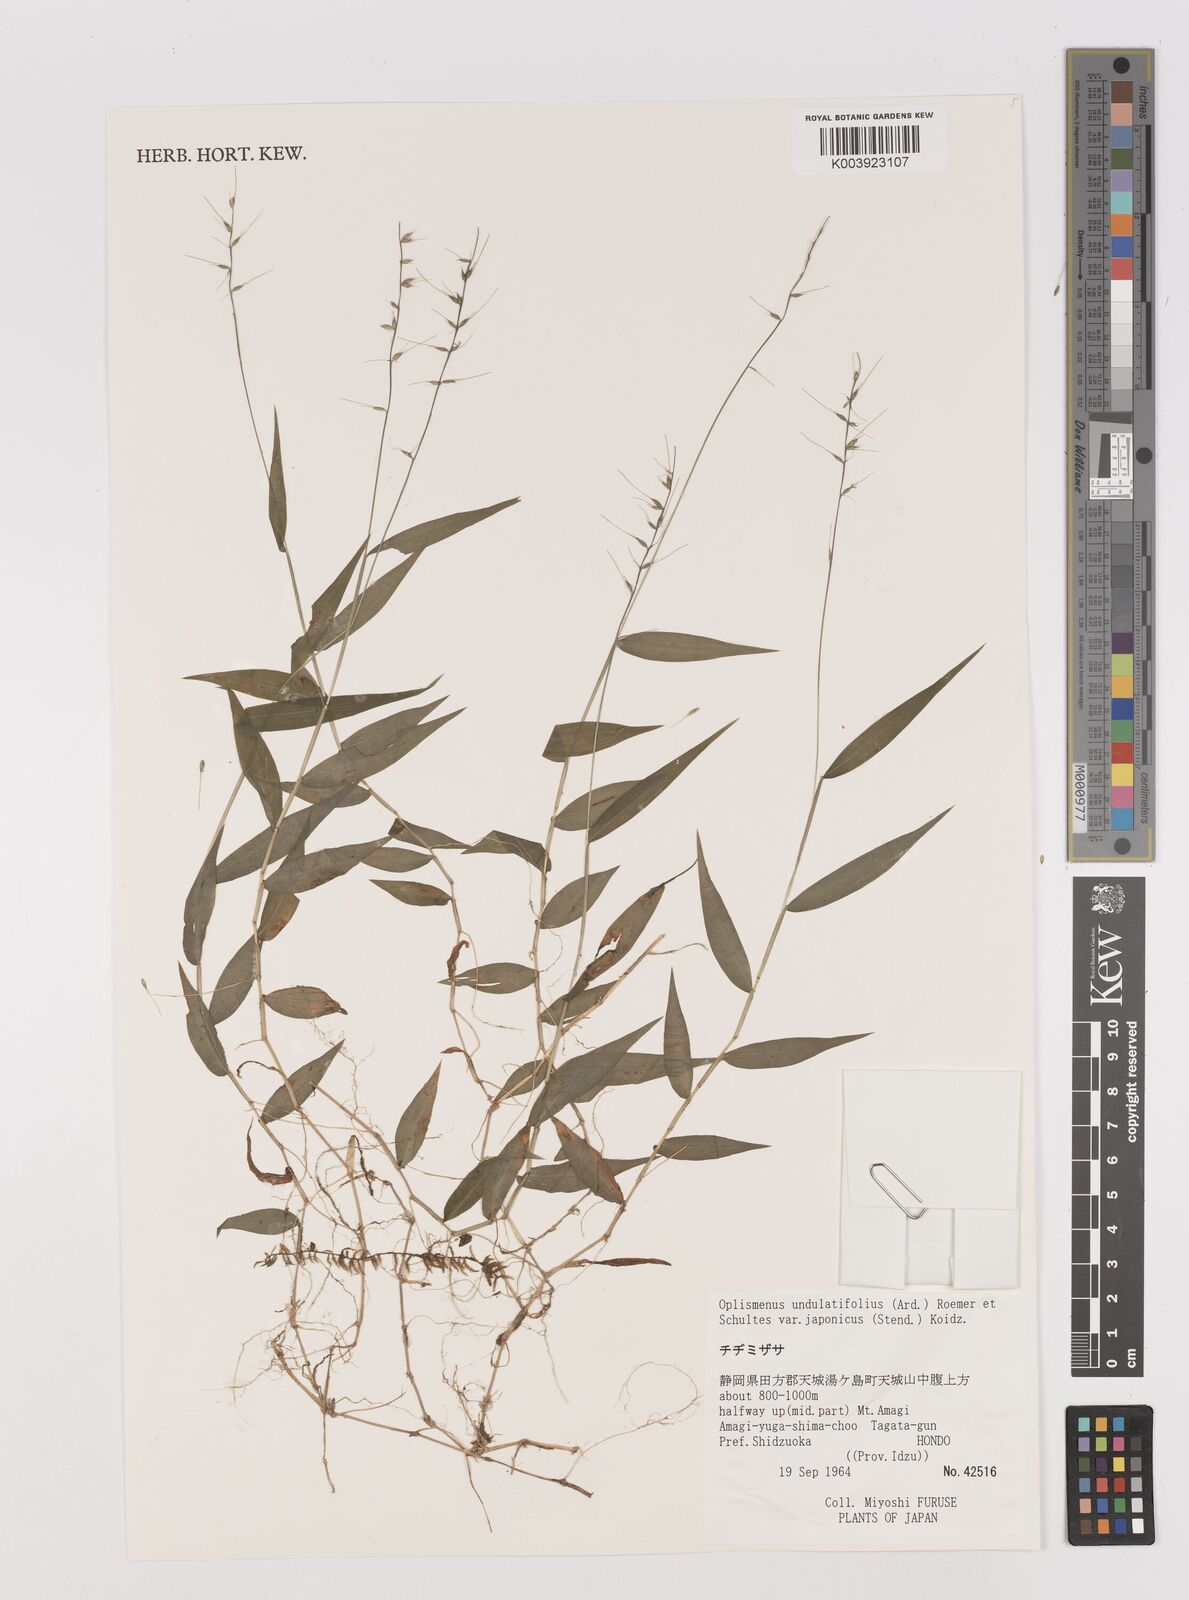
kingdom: Plantae
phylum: Tracheophyta
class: Liliopsida
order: Poales
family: Poaceae
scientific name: Poaceae
